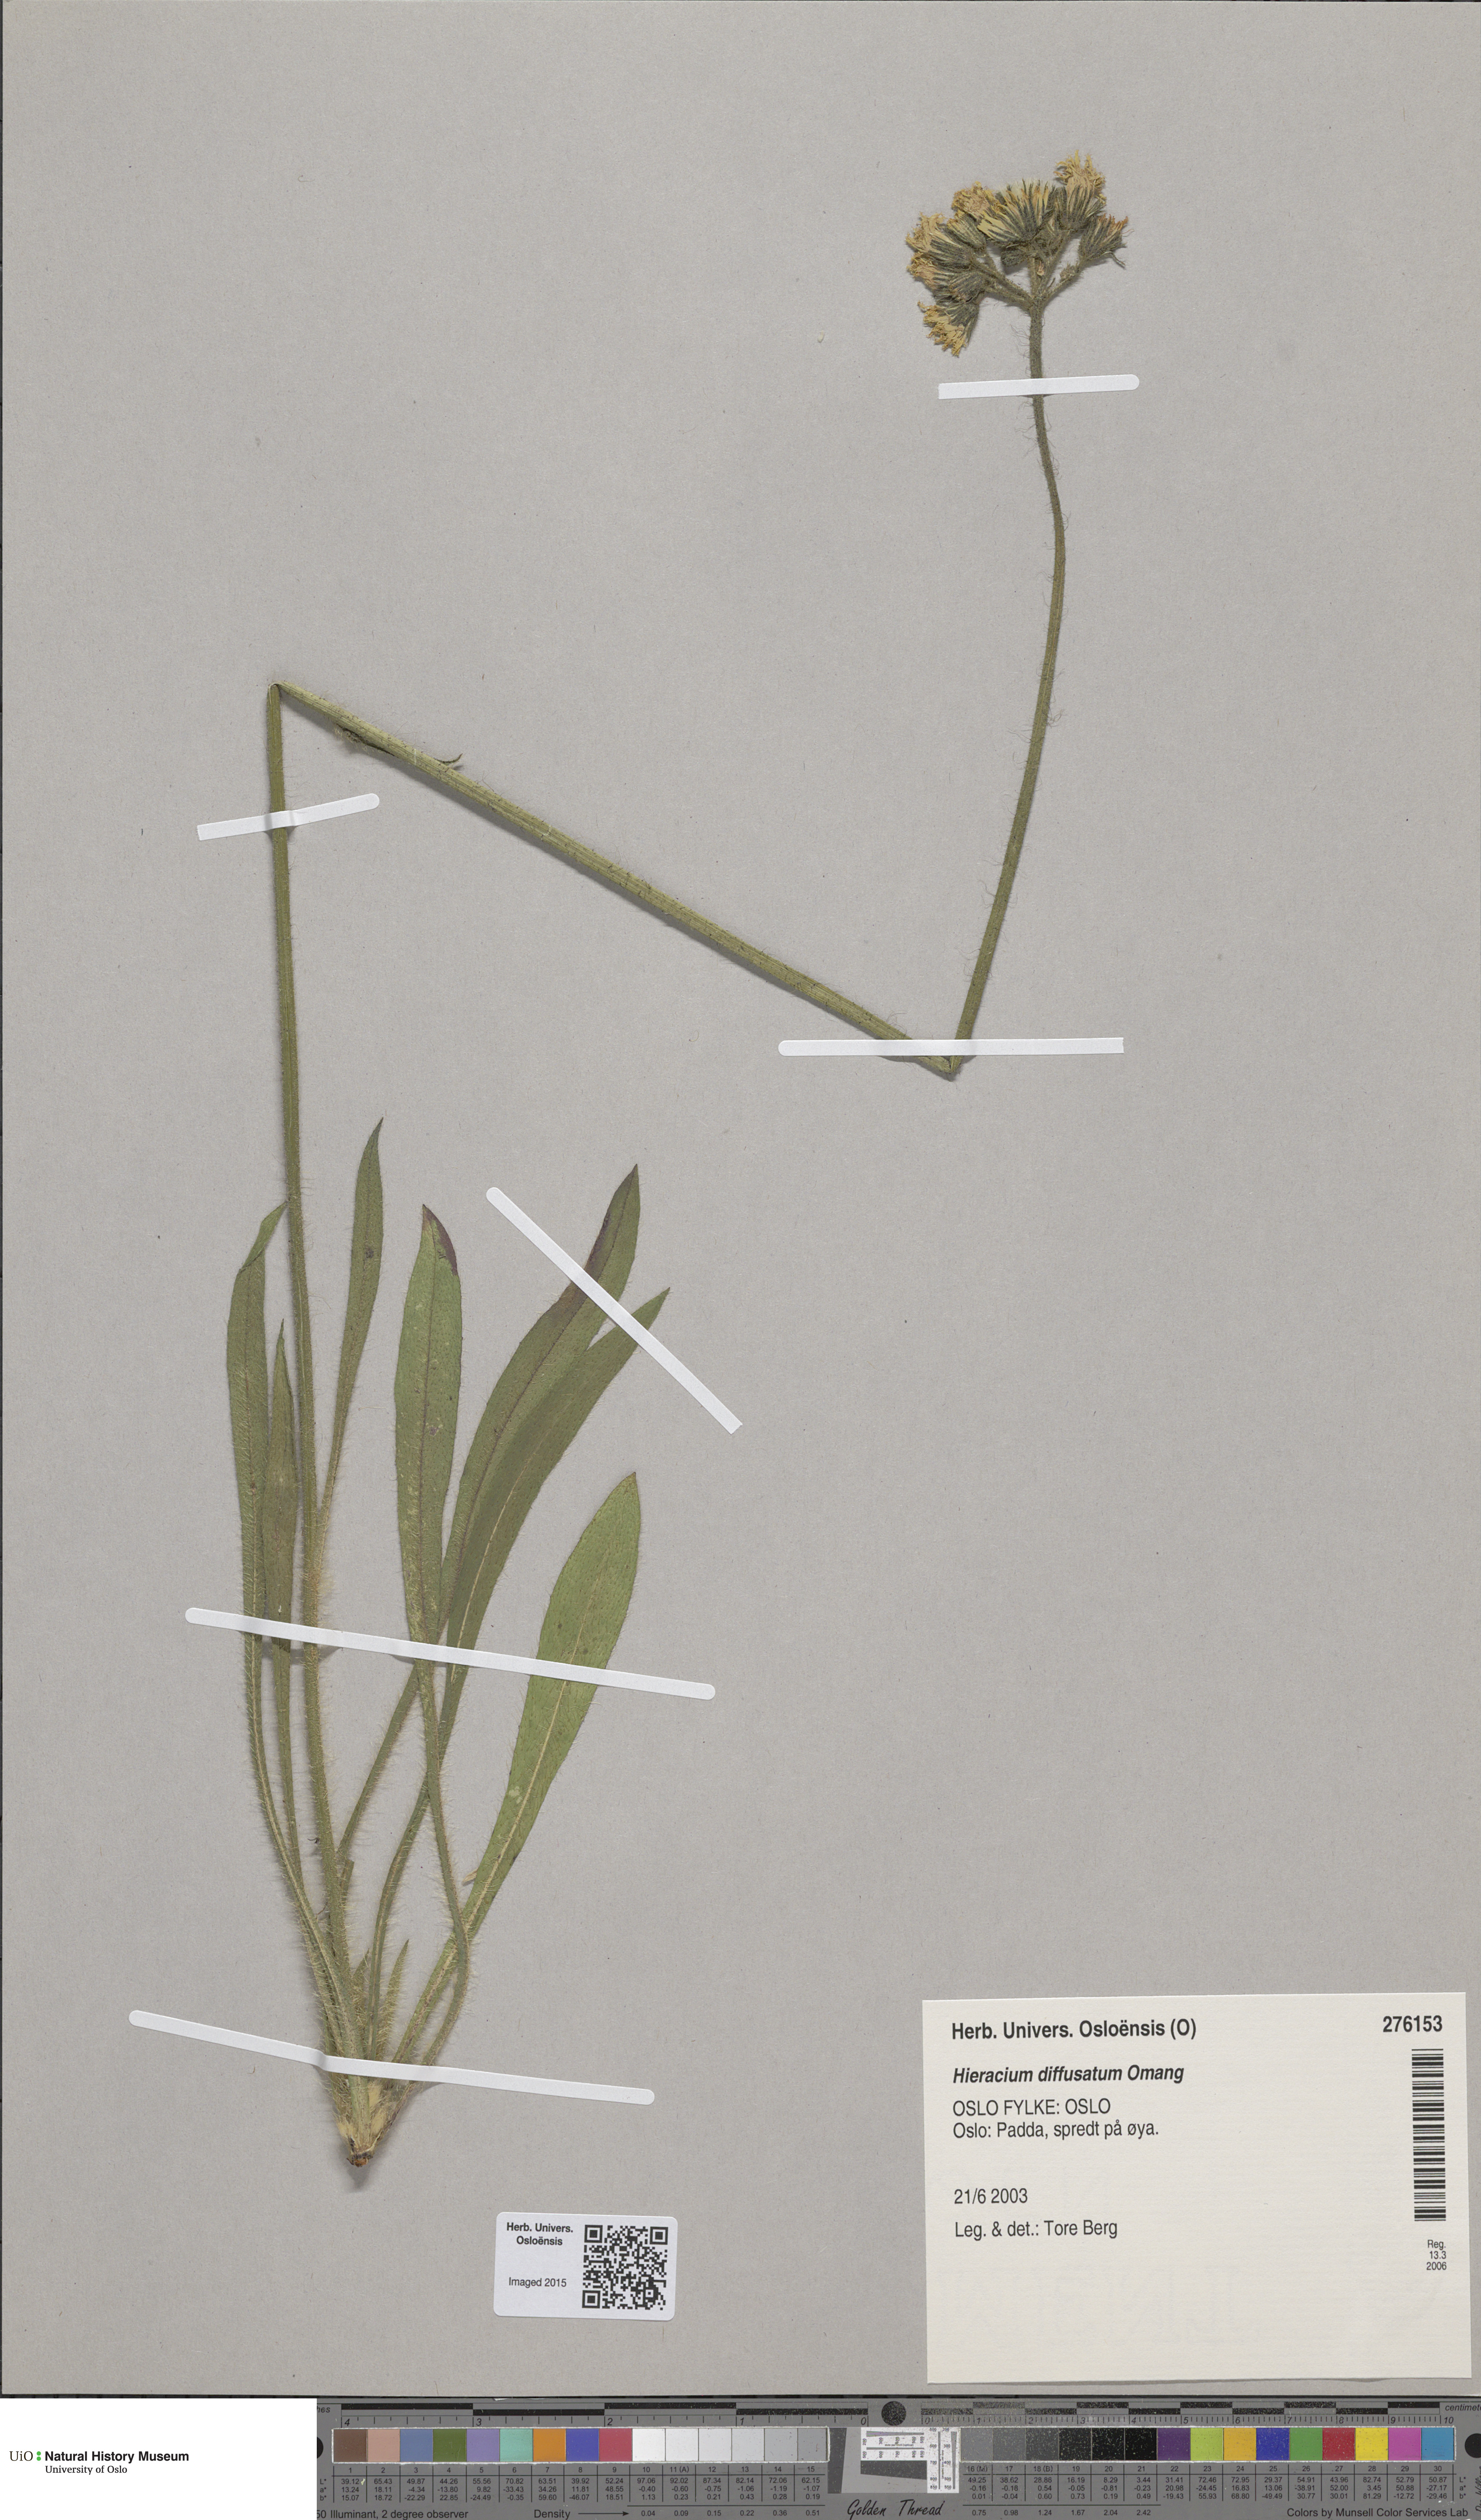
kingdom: Plantae
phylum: Tracheophyta
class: Magnoliopsida
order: Asterales
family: Asteraceae
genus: Pilosella
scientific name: Pilosella dubia
